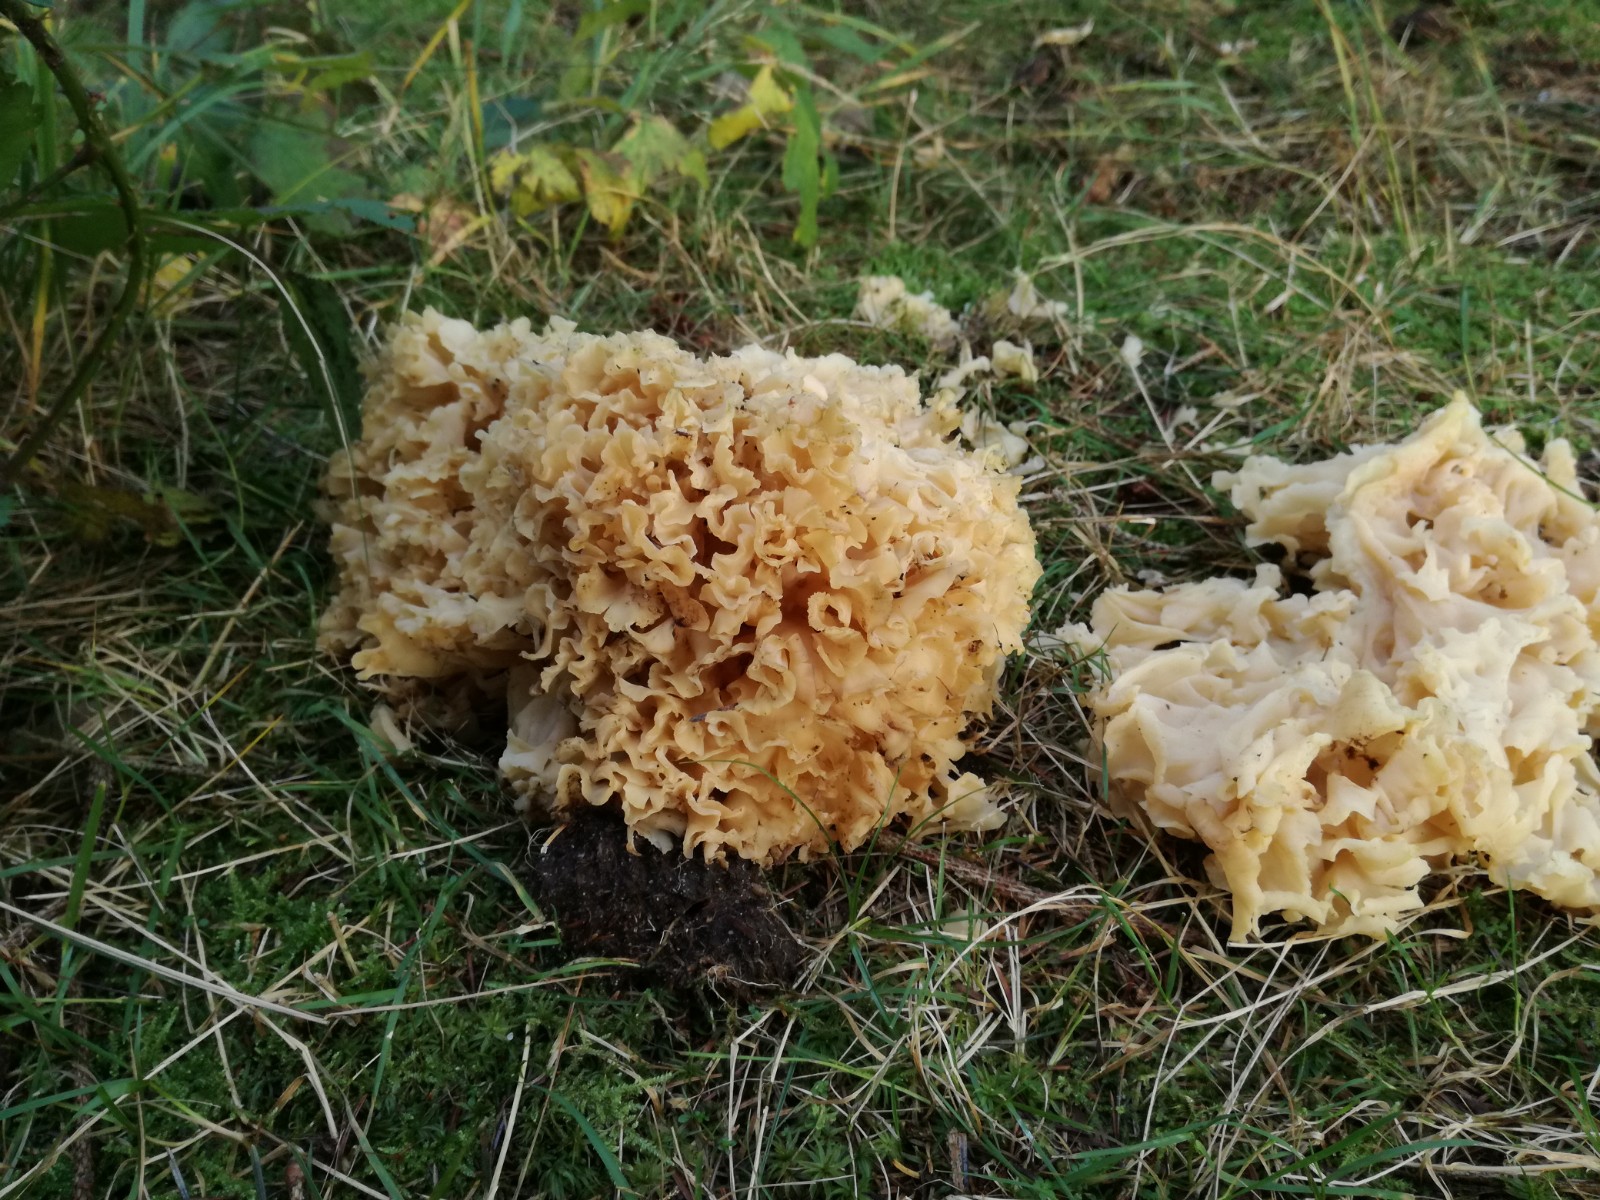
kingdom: Fungi
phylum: Basidiomycota
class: Agaricomycetes
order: Polyporales
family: Sparassidaceae
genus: Sparassis
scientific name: Sparassis crispa
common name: kruset blomkålssvamp
